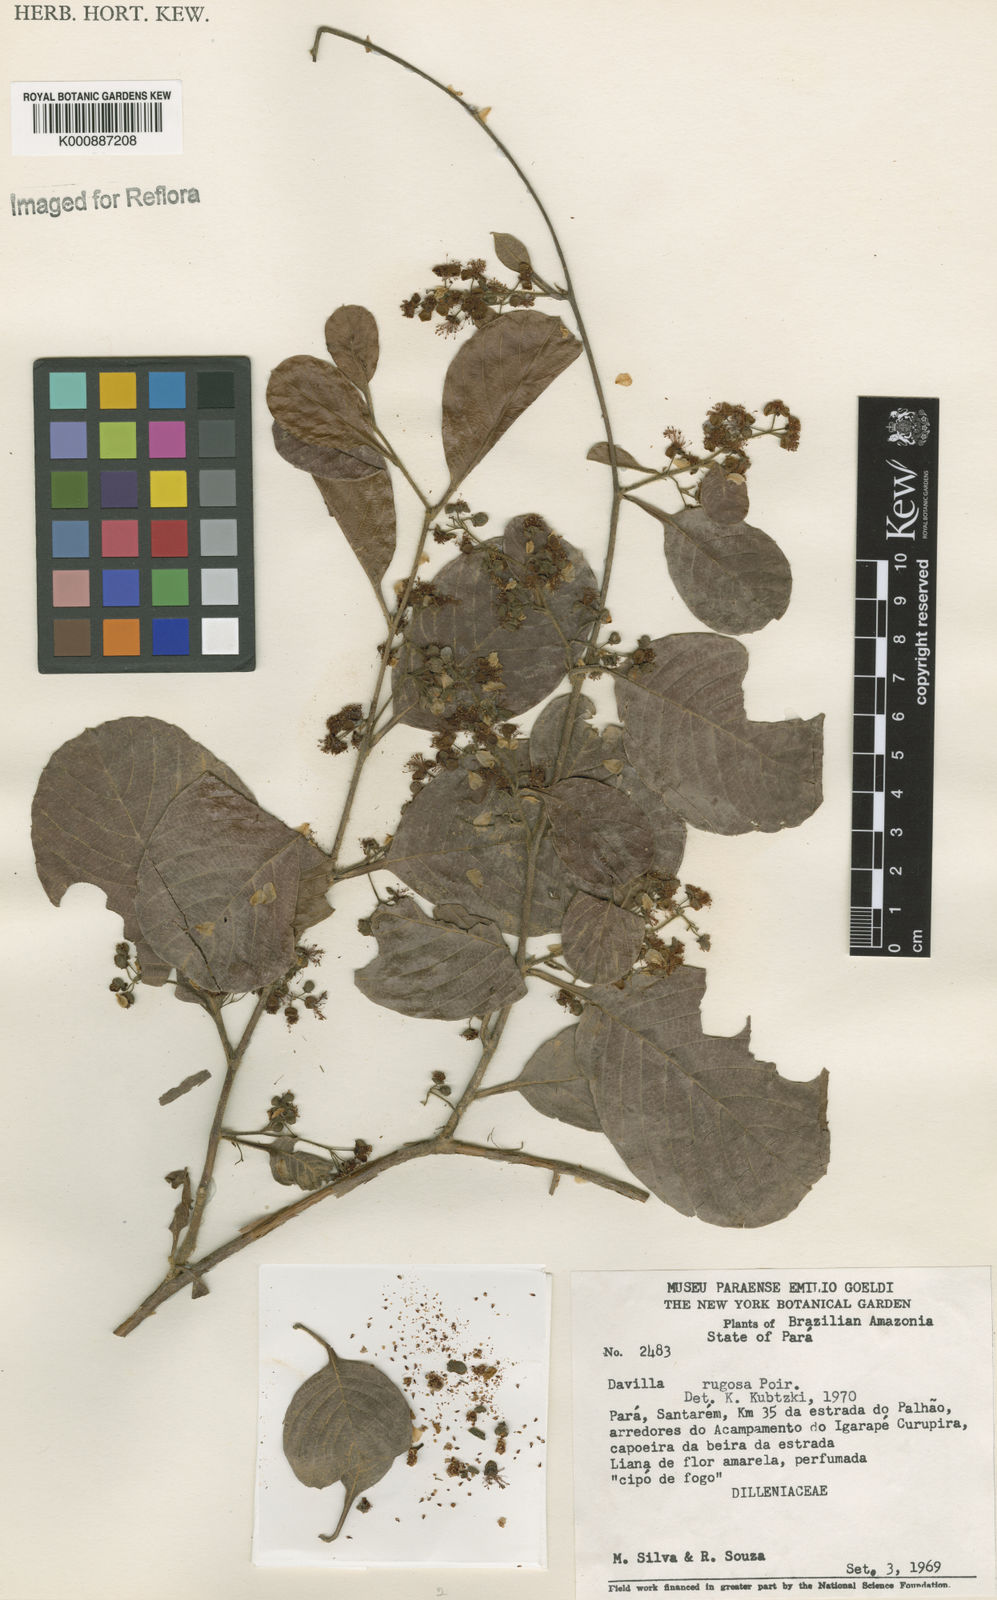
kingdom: Plantae
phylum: Tracheophyta
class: Magnoliopsida
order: Dilleniales
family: Dilleniaceae
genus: Davilla
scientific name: Davilla rugosa
